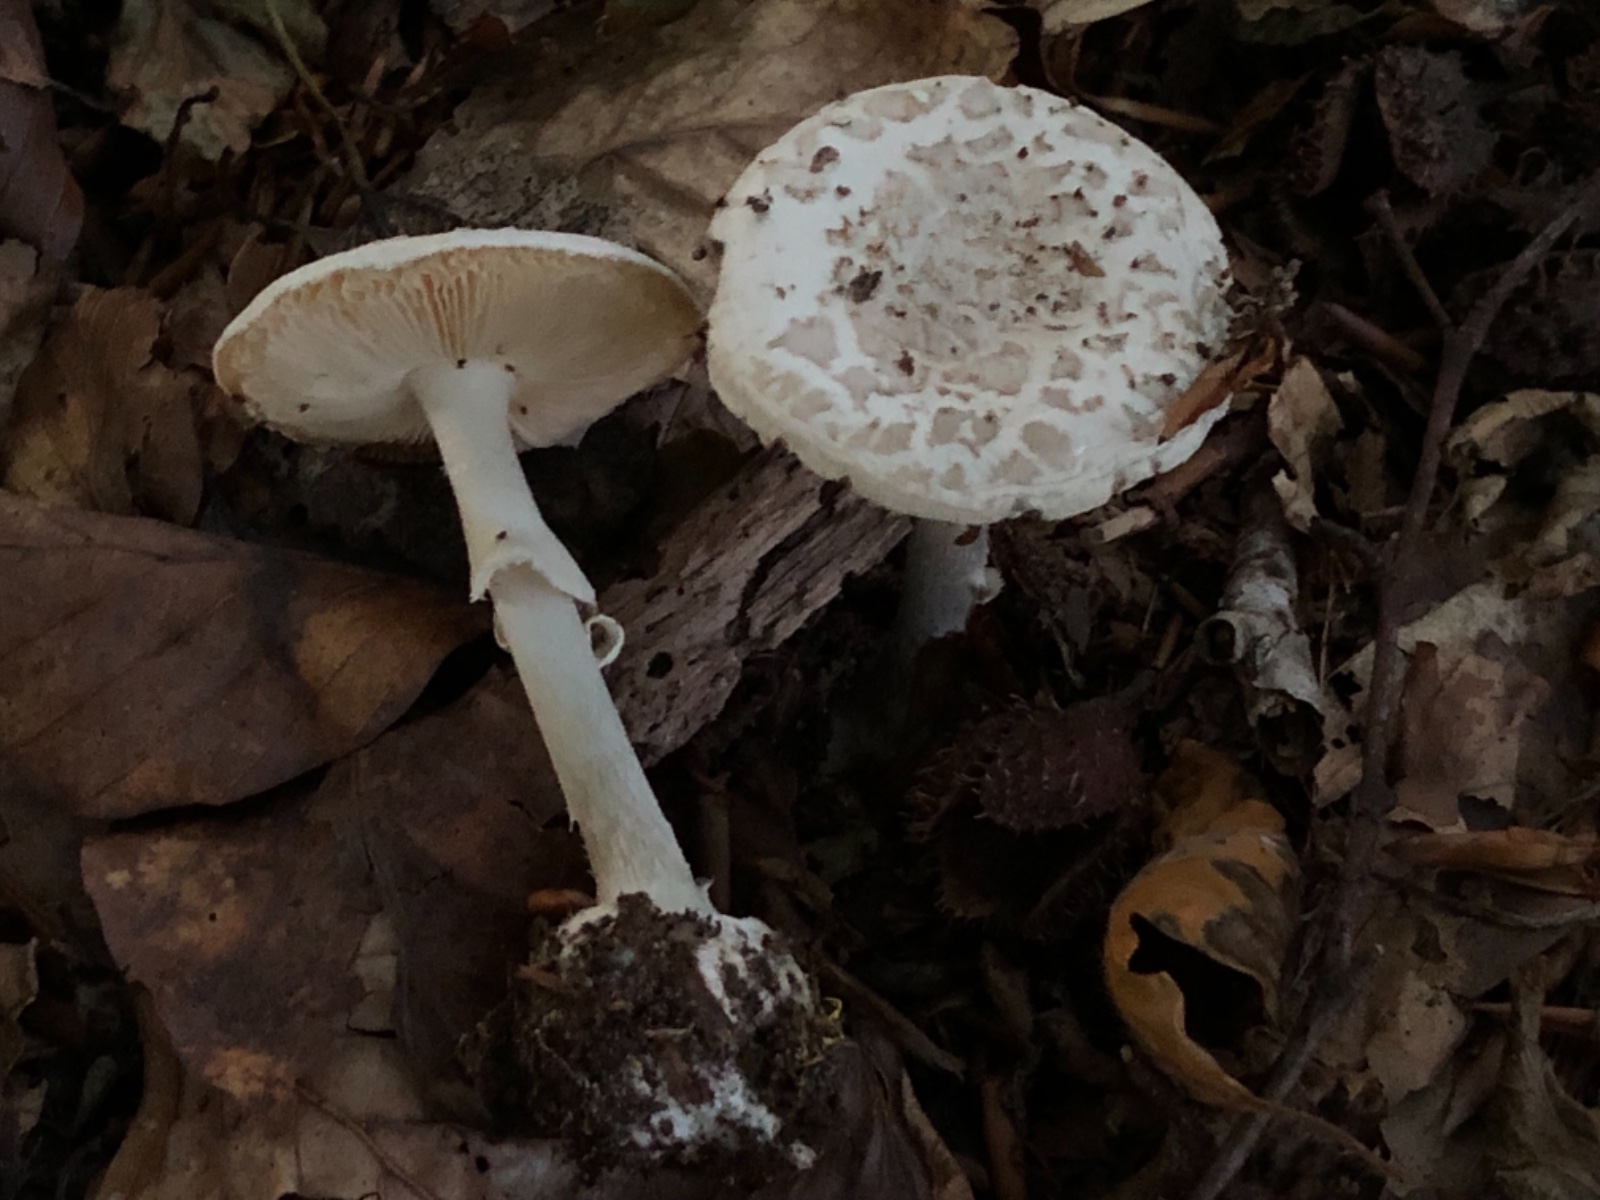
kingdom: Fungi
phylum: Basidiomycota
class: Agaricomycetes
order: Agaricales
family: Amanitaceae
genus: Amanita
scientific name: Amanita citrina
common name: kugleknoldet fluesvamp
